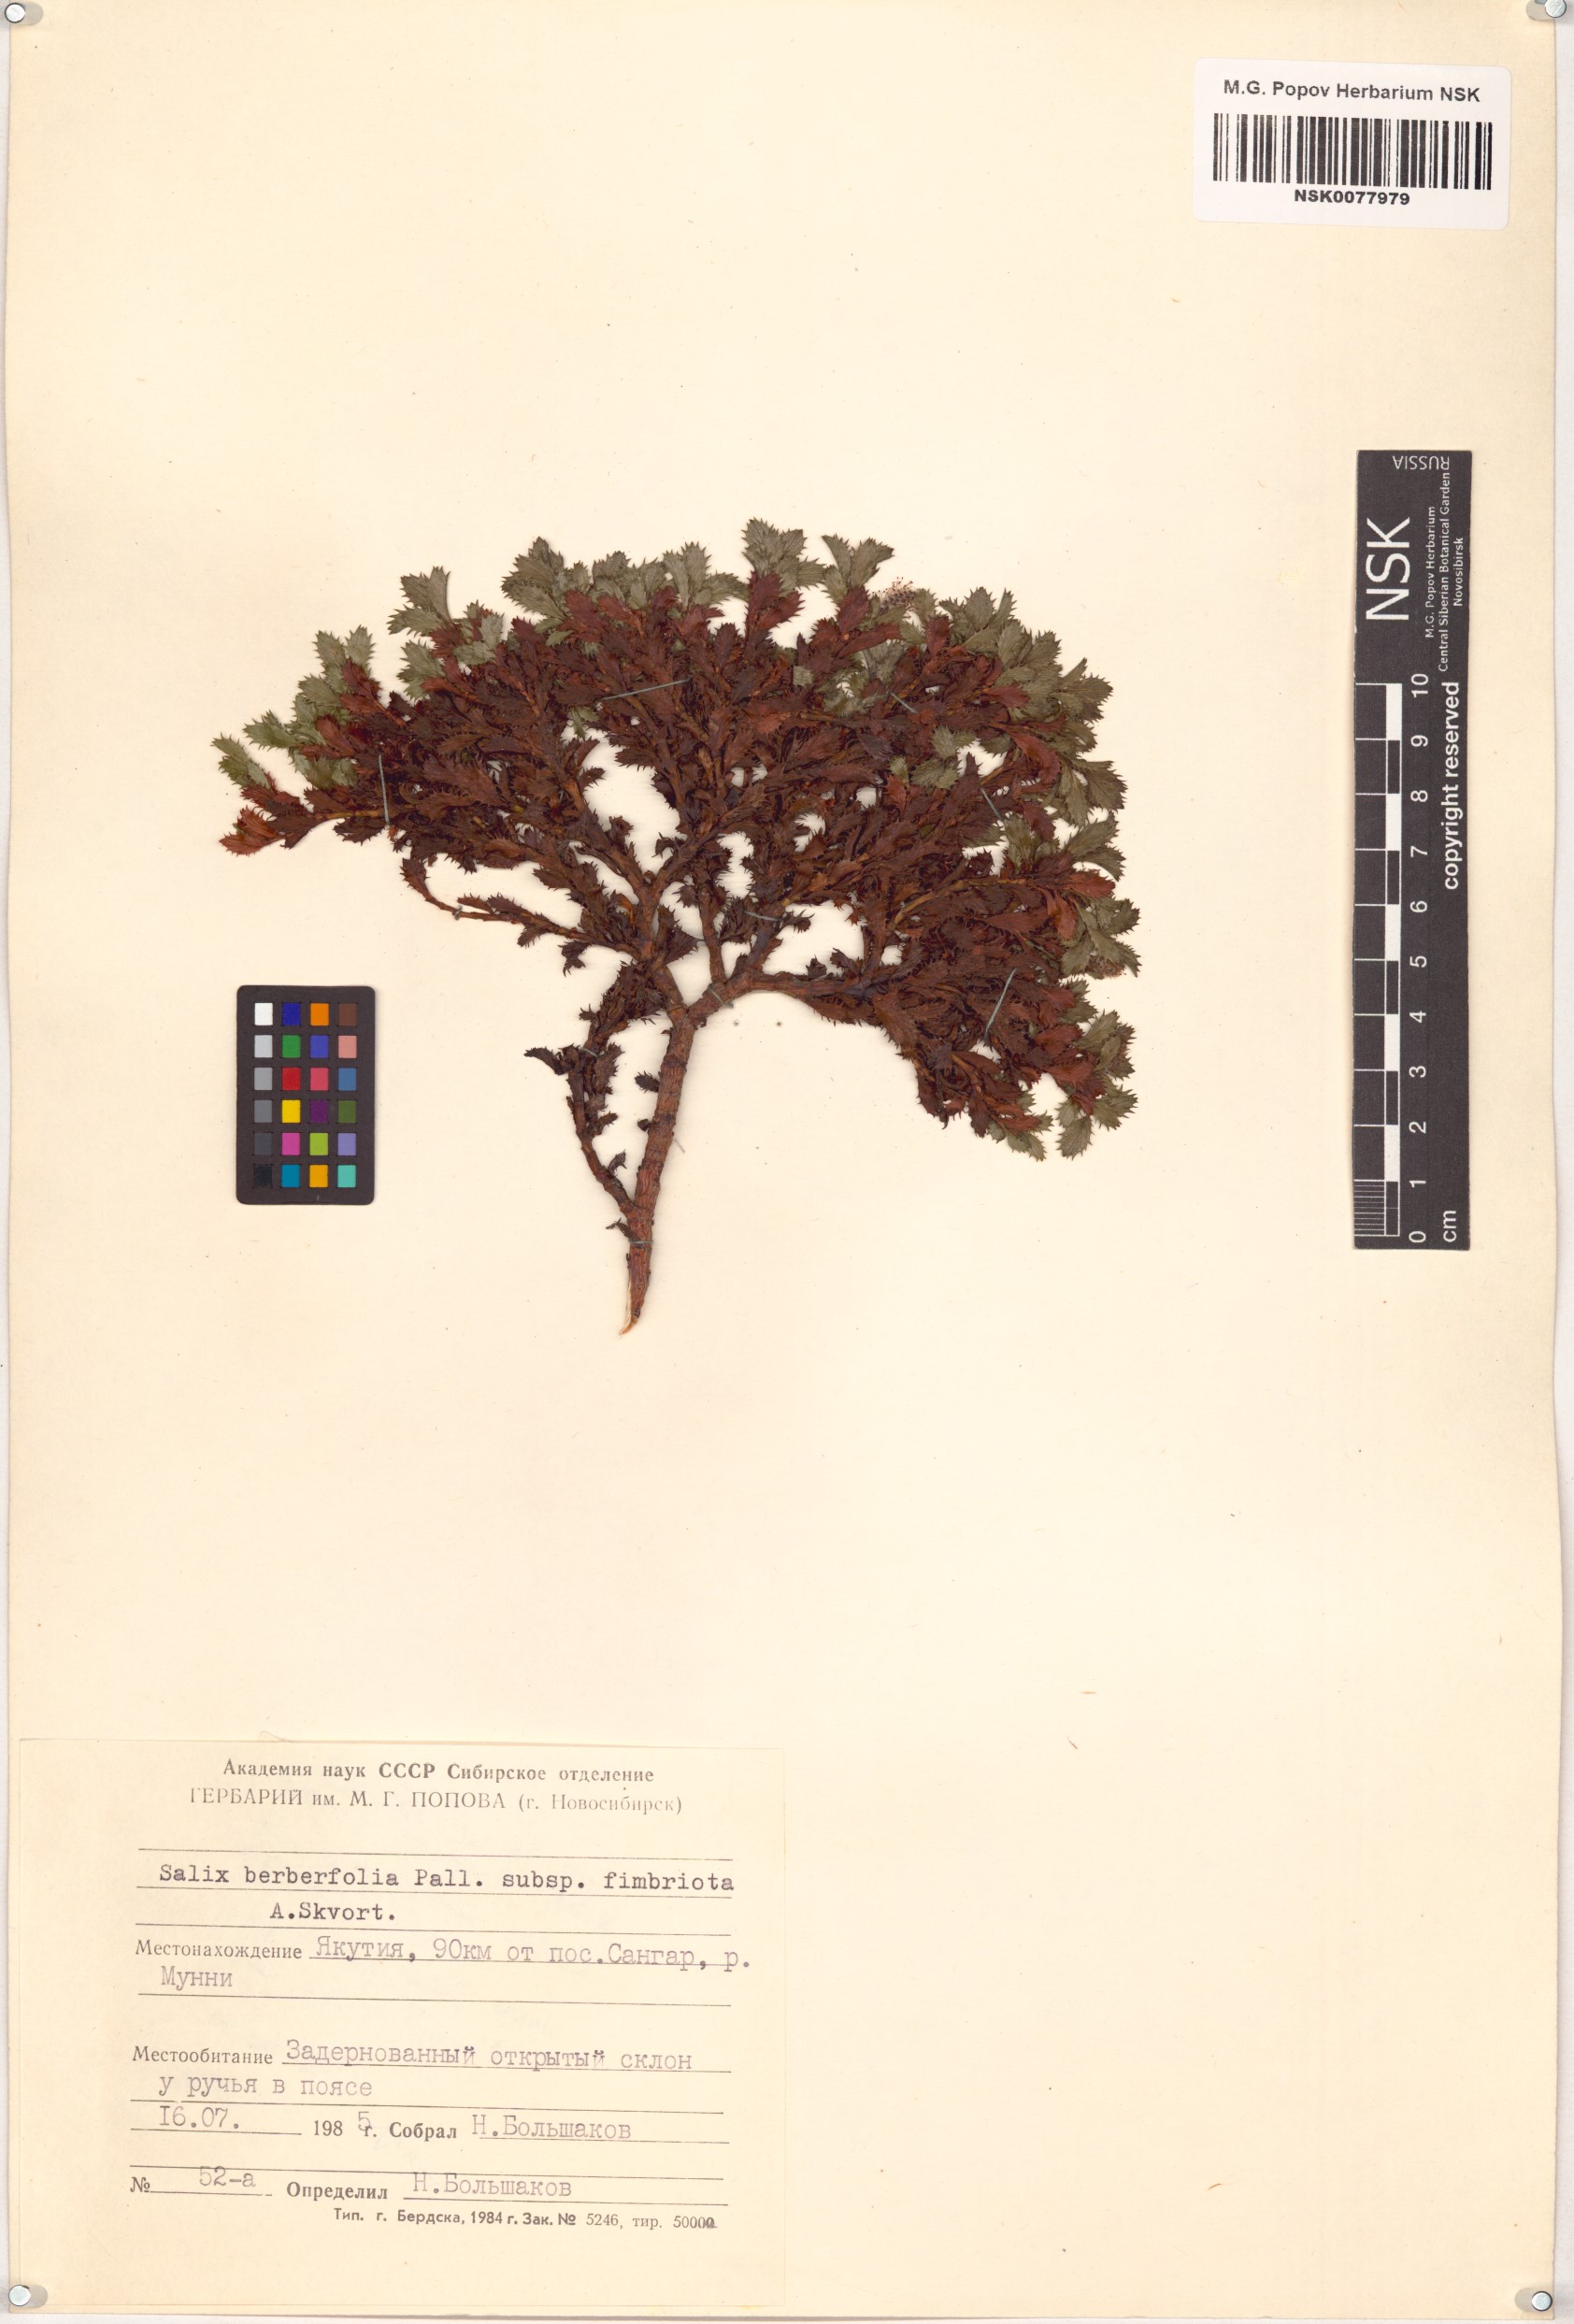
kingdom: Plantae
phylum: Tracheophyta
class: Magnoliopsida
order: Malpighiales
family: Salicaceae
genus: Salix
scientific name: Salix berberifolia
